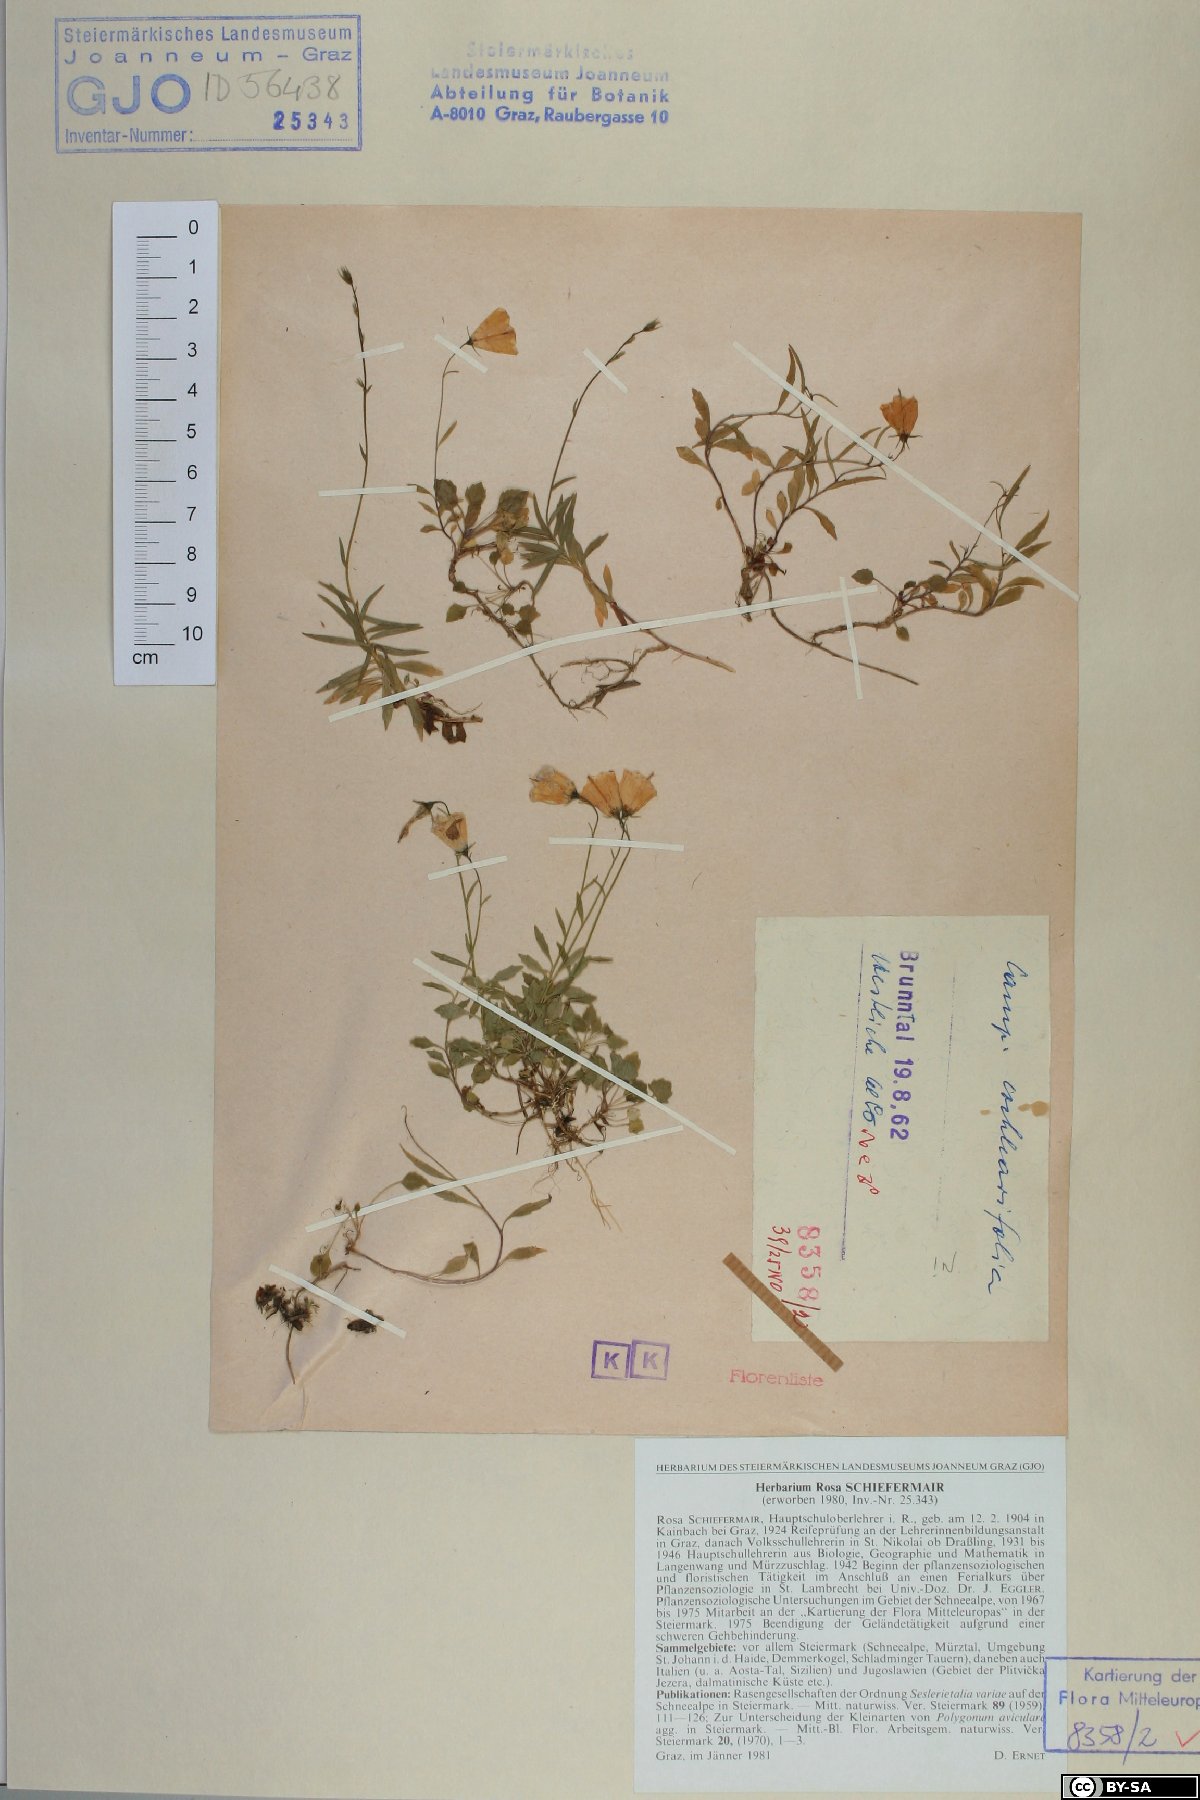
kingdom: Plantae
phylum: Tracheophyta
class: Magnoliopsida
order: Asterales
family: Campanulaceae
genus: Campanula
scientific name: Campanula cochleariifolia
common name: Fairies'-thimbles
